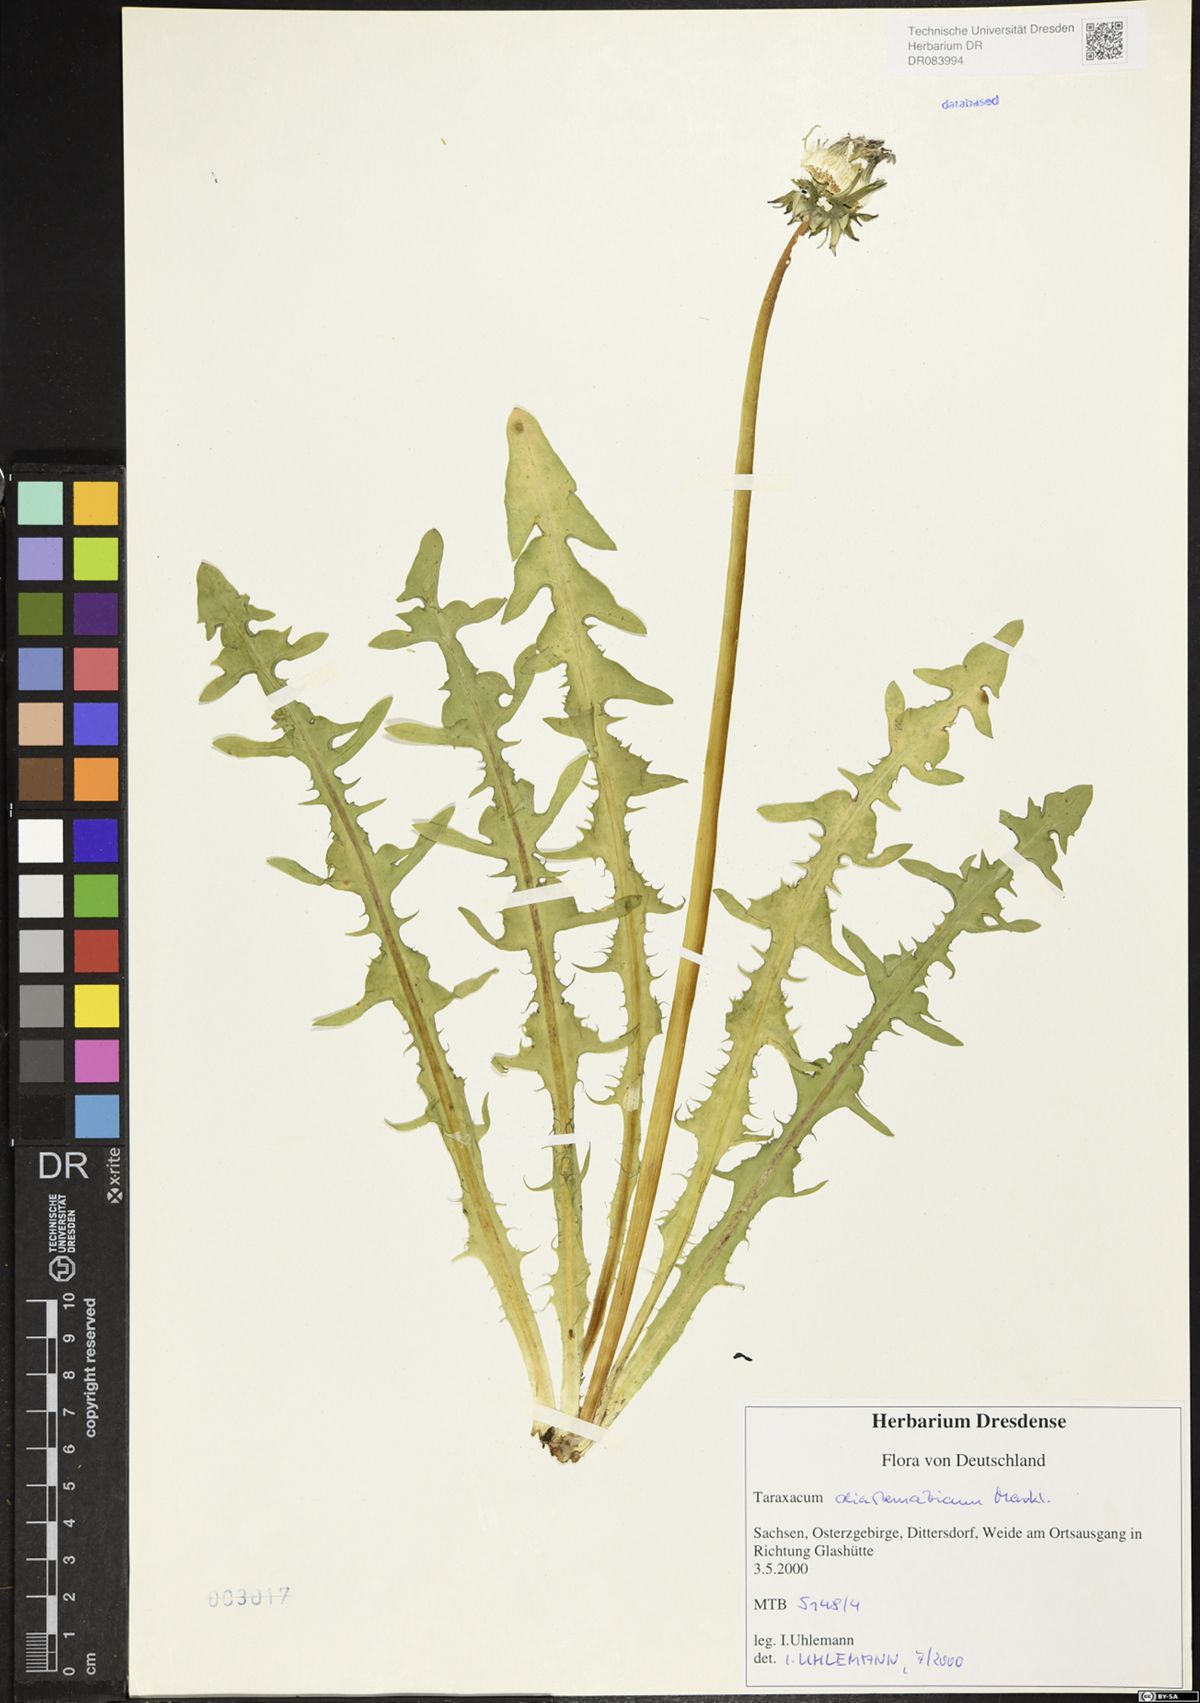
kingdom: Plantae
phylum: Tracheophyta
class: Magnoliopsida
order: Asterales
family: Asteraceae
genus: Taraxacum
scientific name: Taraxacum diastematicum
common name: Bulbous-lobed dandelion
